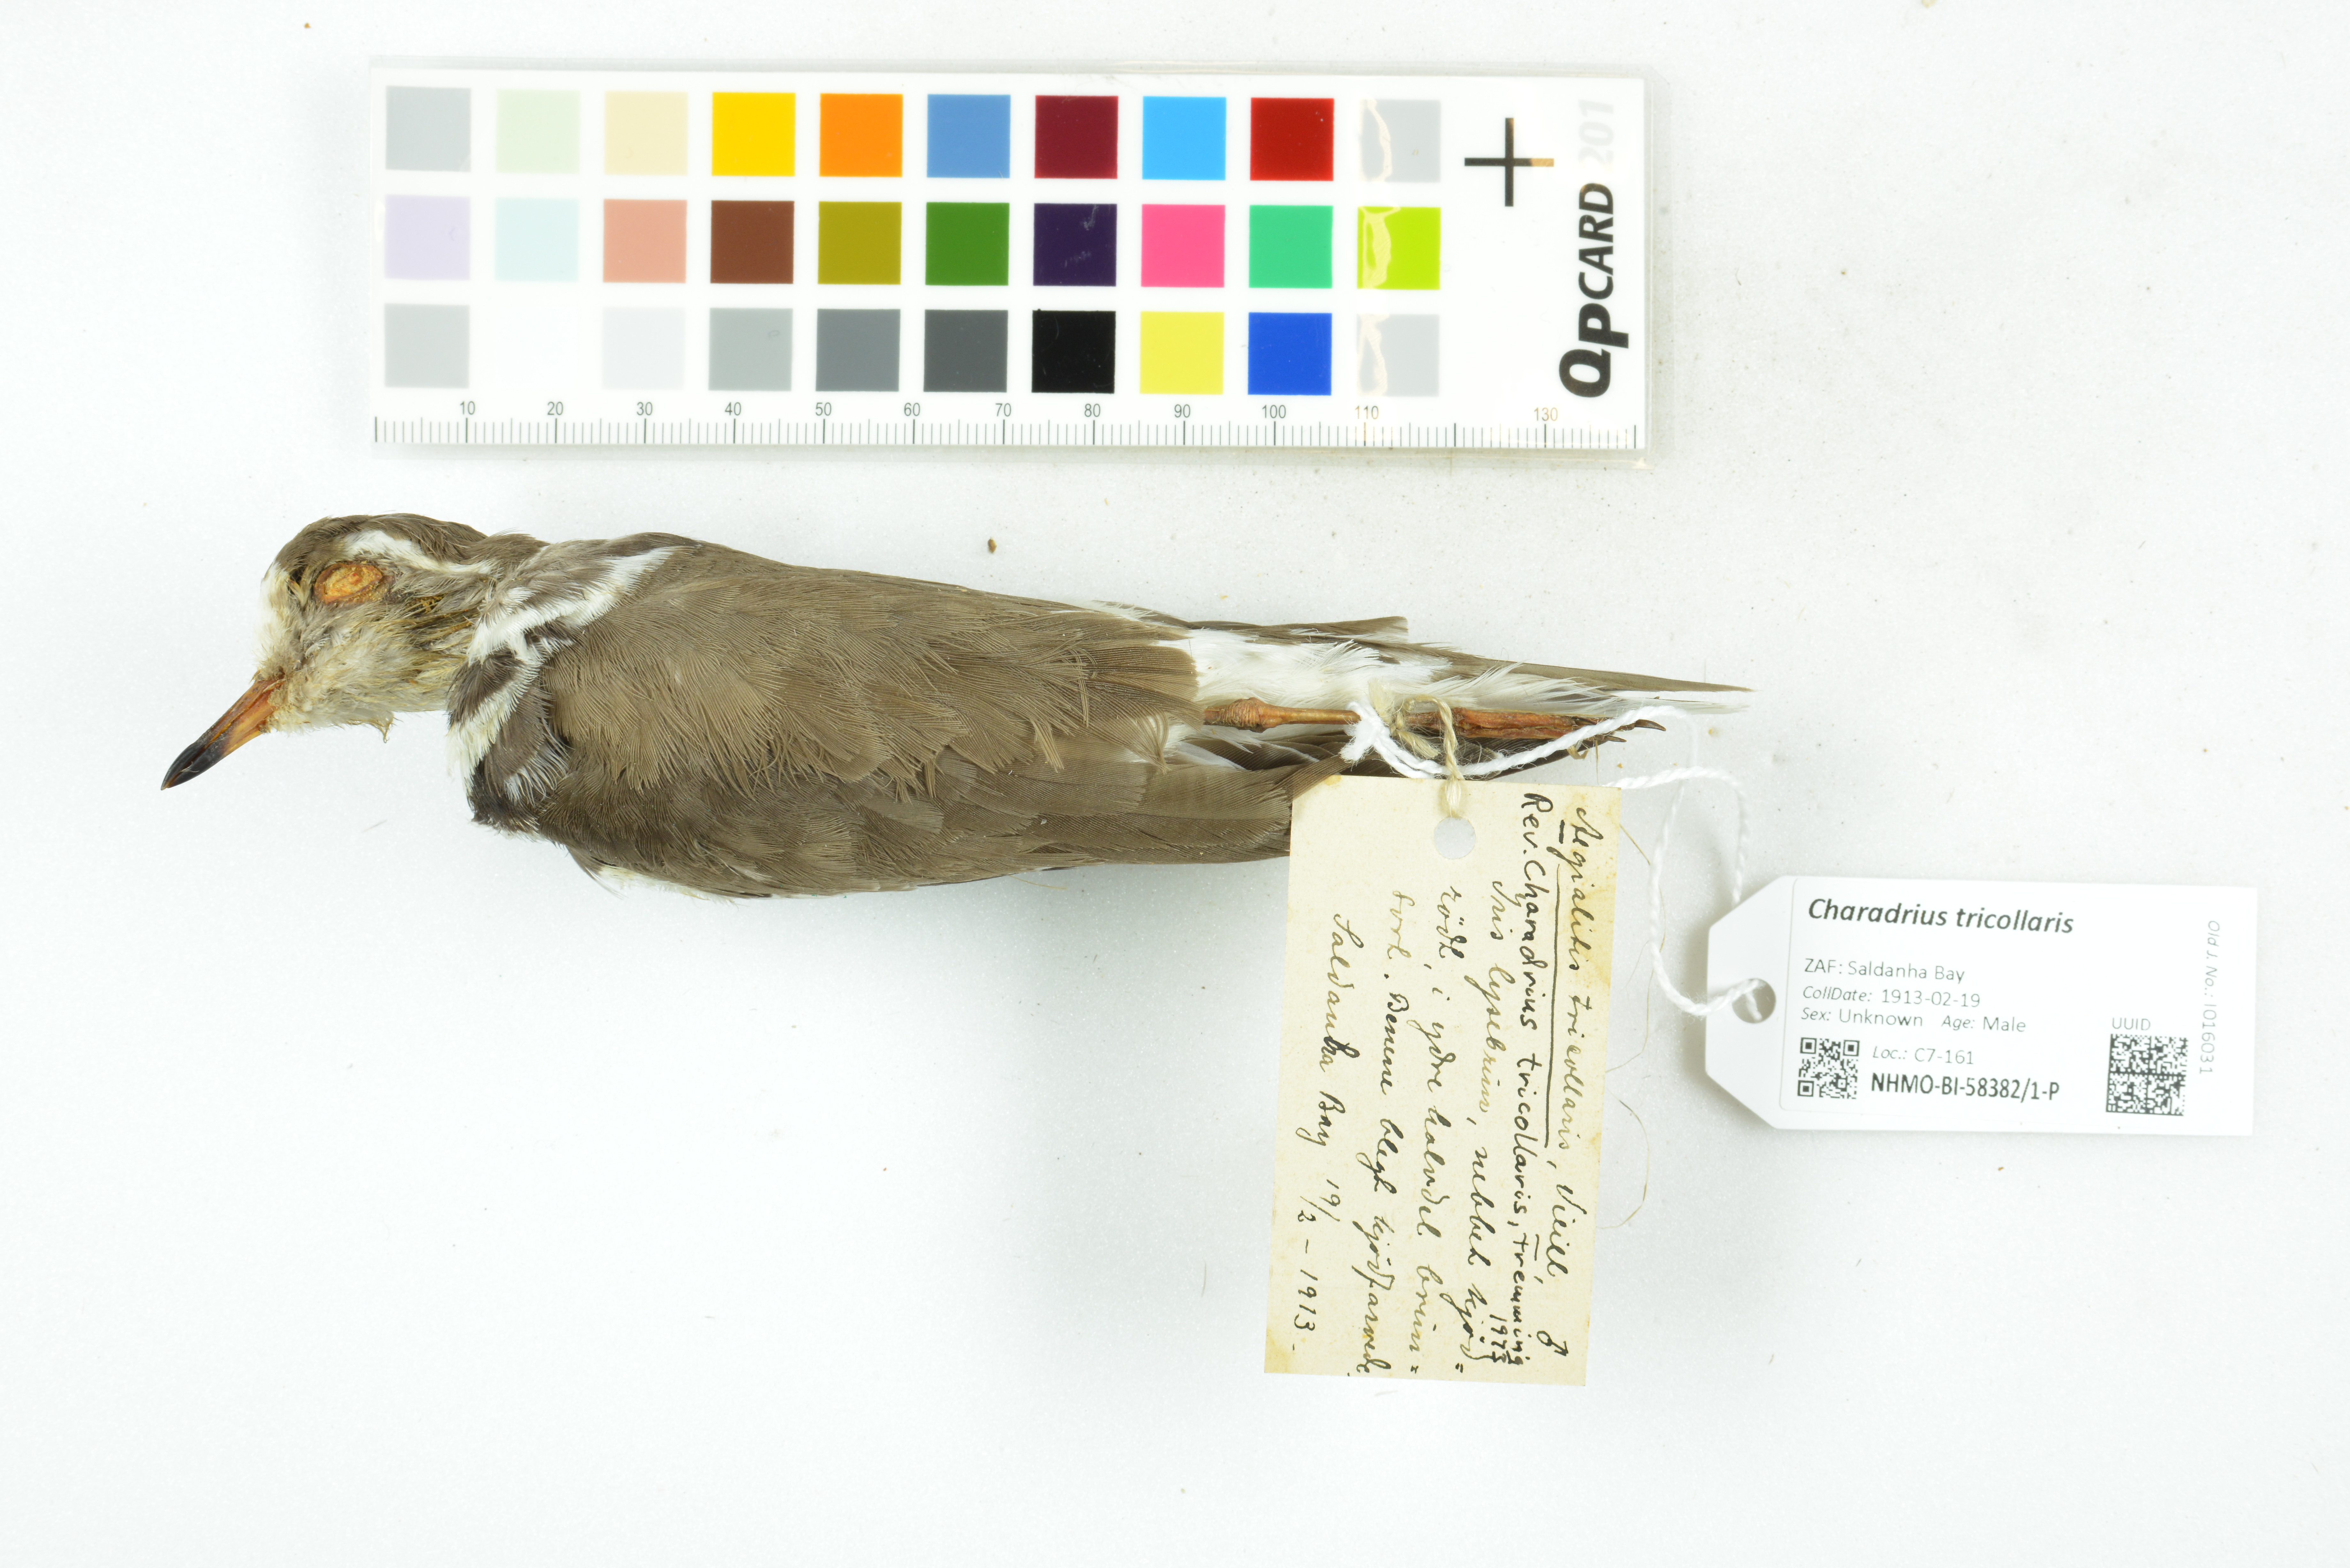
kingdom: Animalia
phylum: Chordata
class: Aves
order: Charadriiformes
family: Charadriidae
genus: Charadrius
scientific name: Charadrius tricollaris
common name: Three-banded plover
